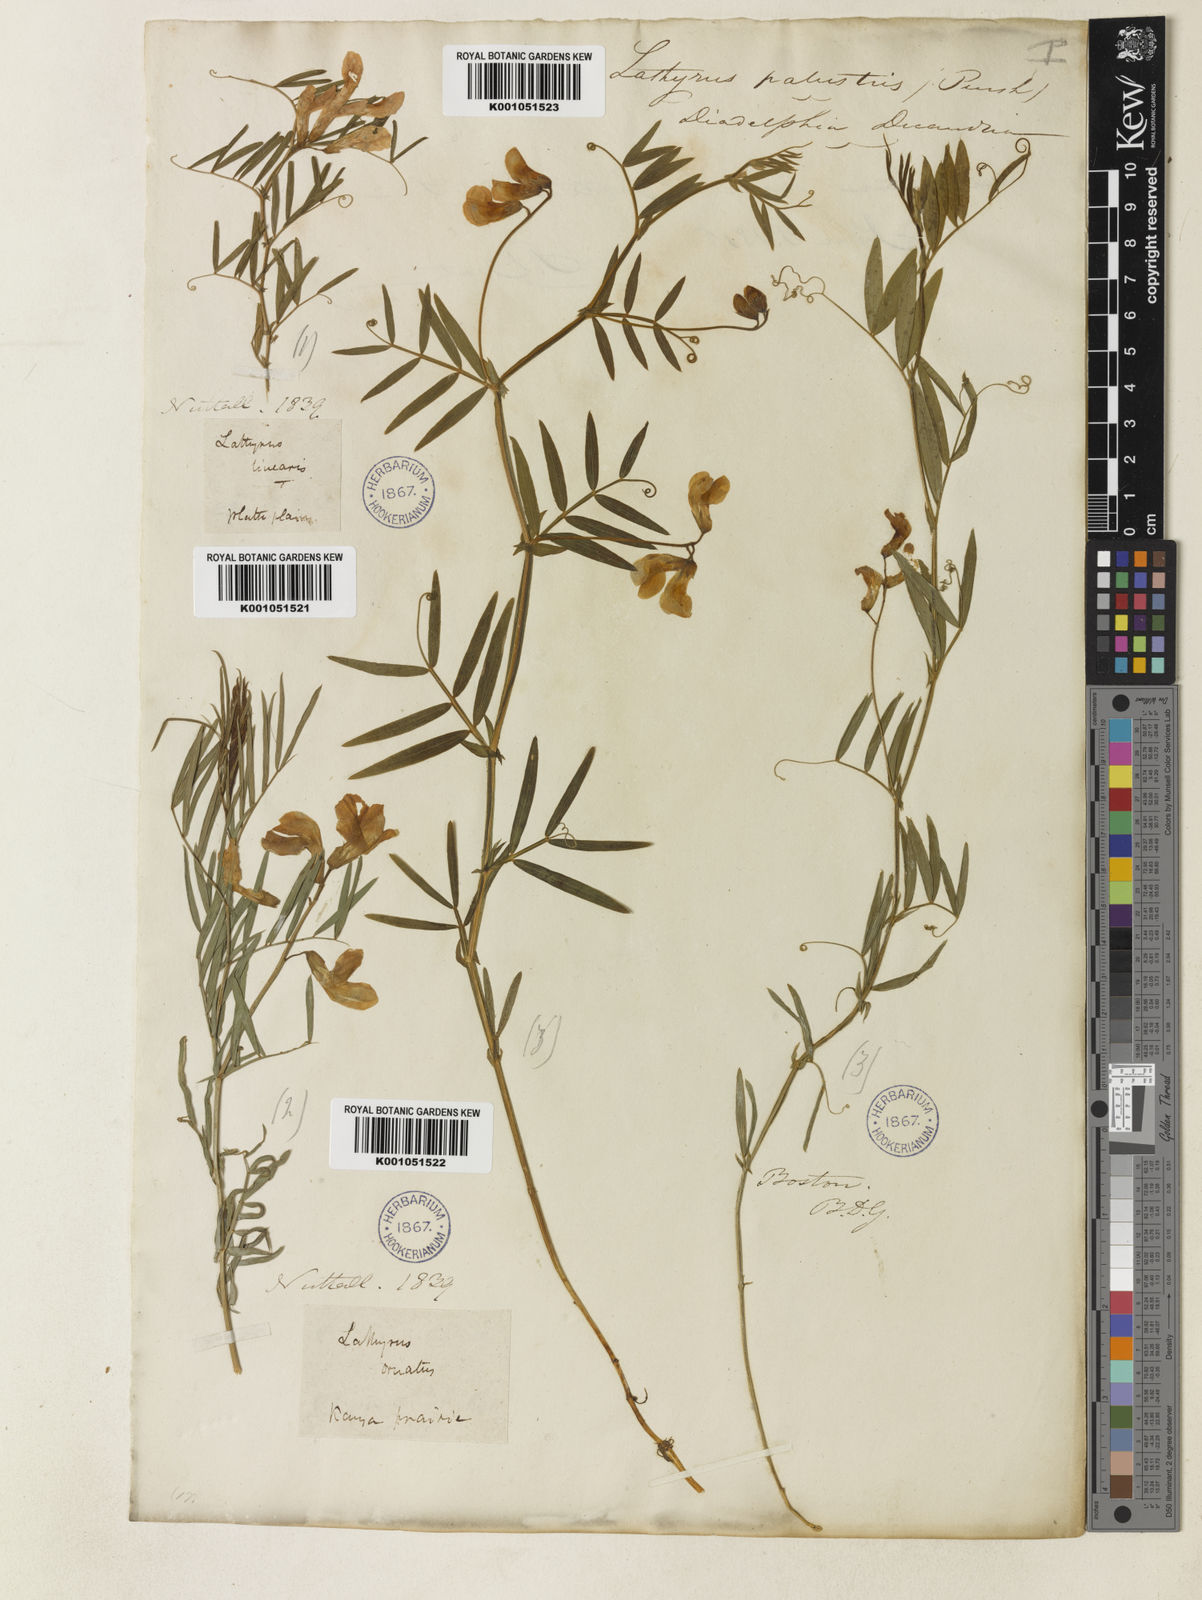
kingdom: Plantae
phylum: Tracheophyta
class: Magnoliopsida
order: Fabales
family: Fabaceae
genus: Lathyrus
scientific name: Lathyrus decaphyllus
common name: Prairie vetchling
